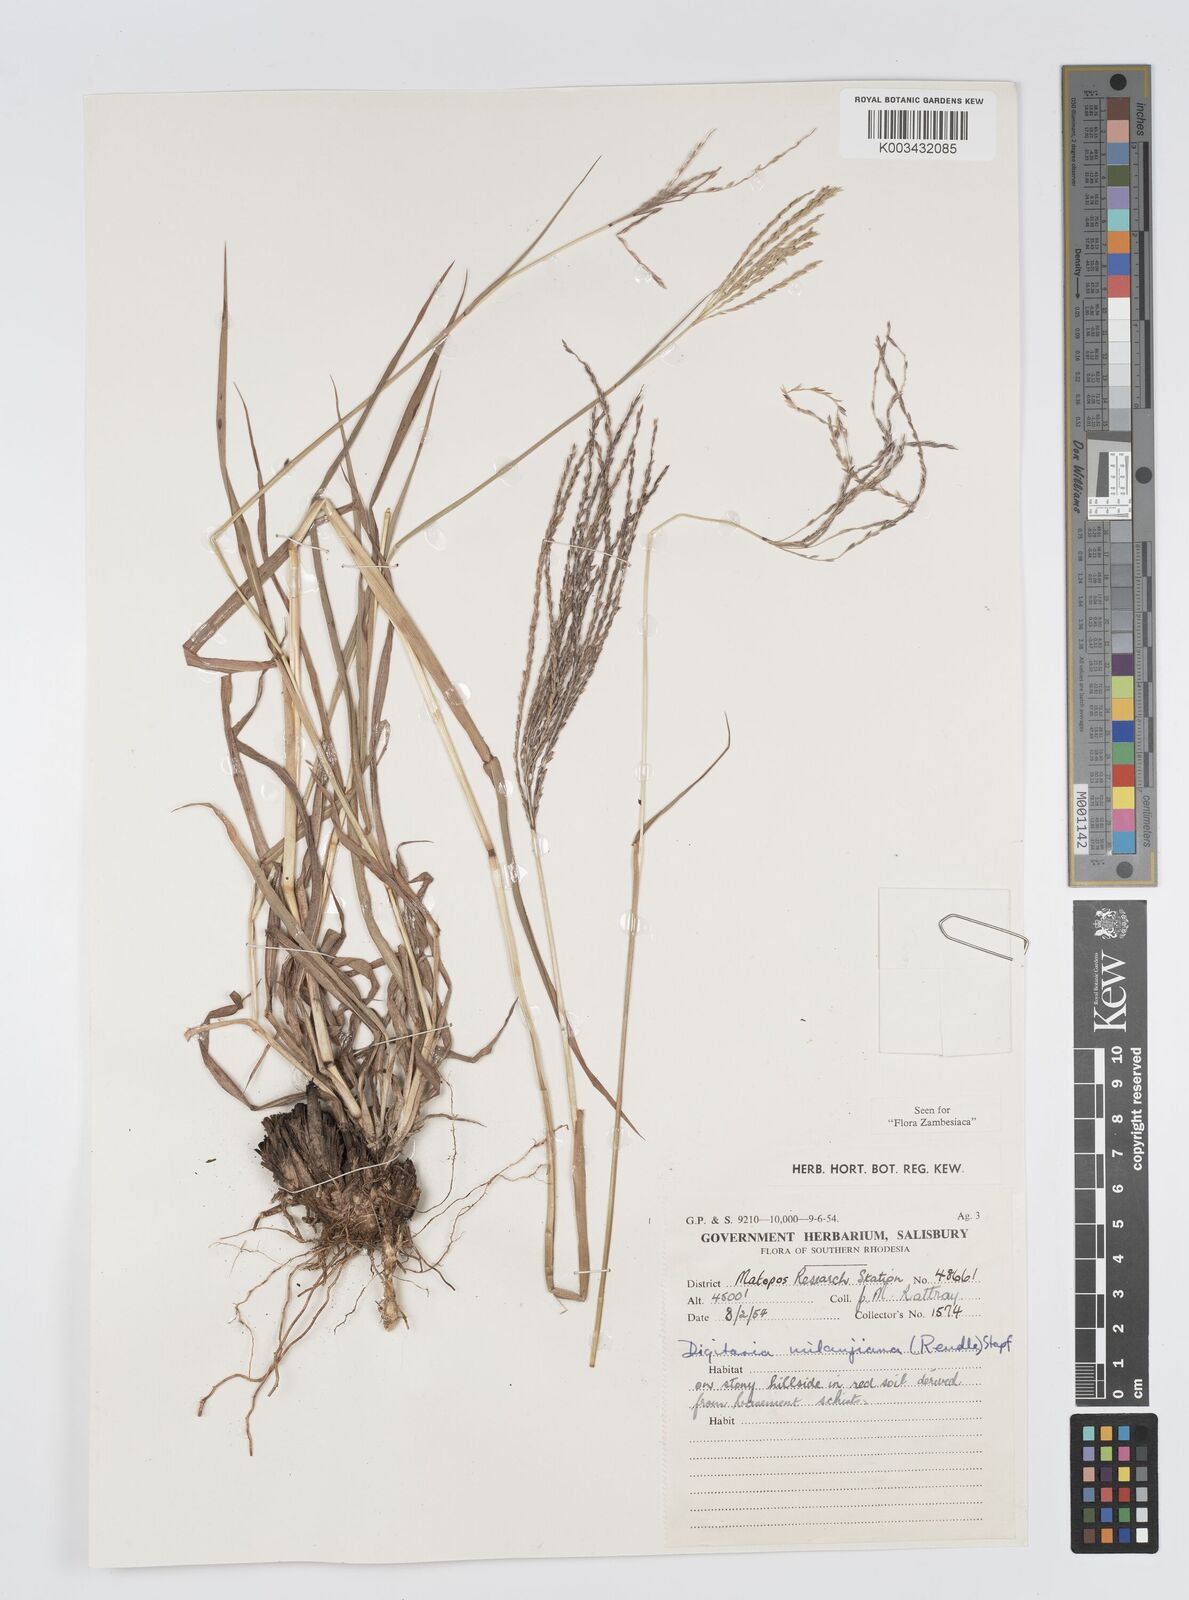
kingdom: Plantae
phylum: Tracheophyta
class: Liliopsida
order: Poales
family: Poaceae
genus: Digitaria
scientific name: Digitaria milanjiana
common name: Madagascar crabgrass
